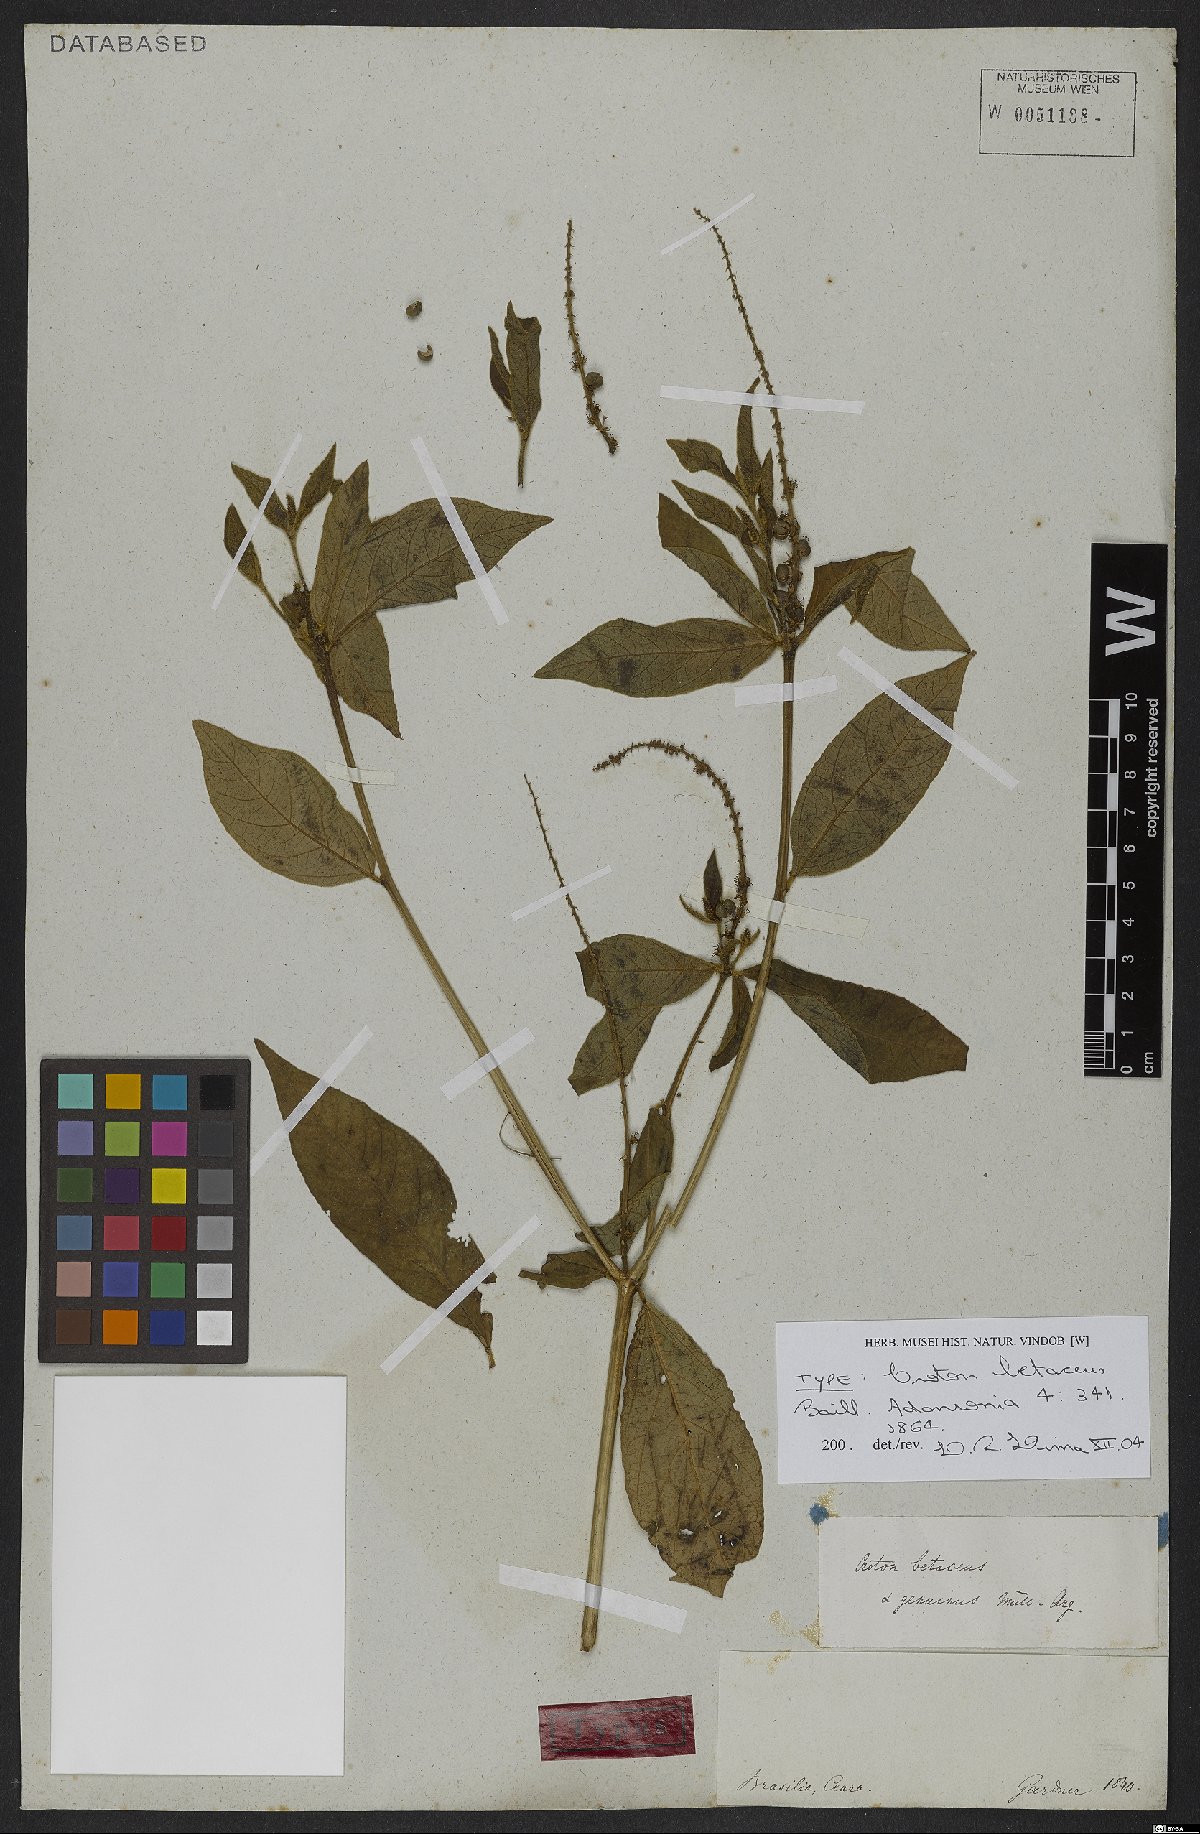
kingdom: Plantae
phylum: Tracheophyta
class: Magnoliopsida
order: Malpighiales
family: Euphorbiaceae
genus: Croton
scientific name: Croton betaceus
